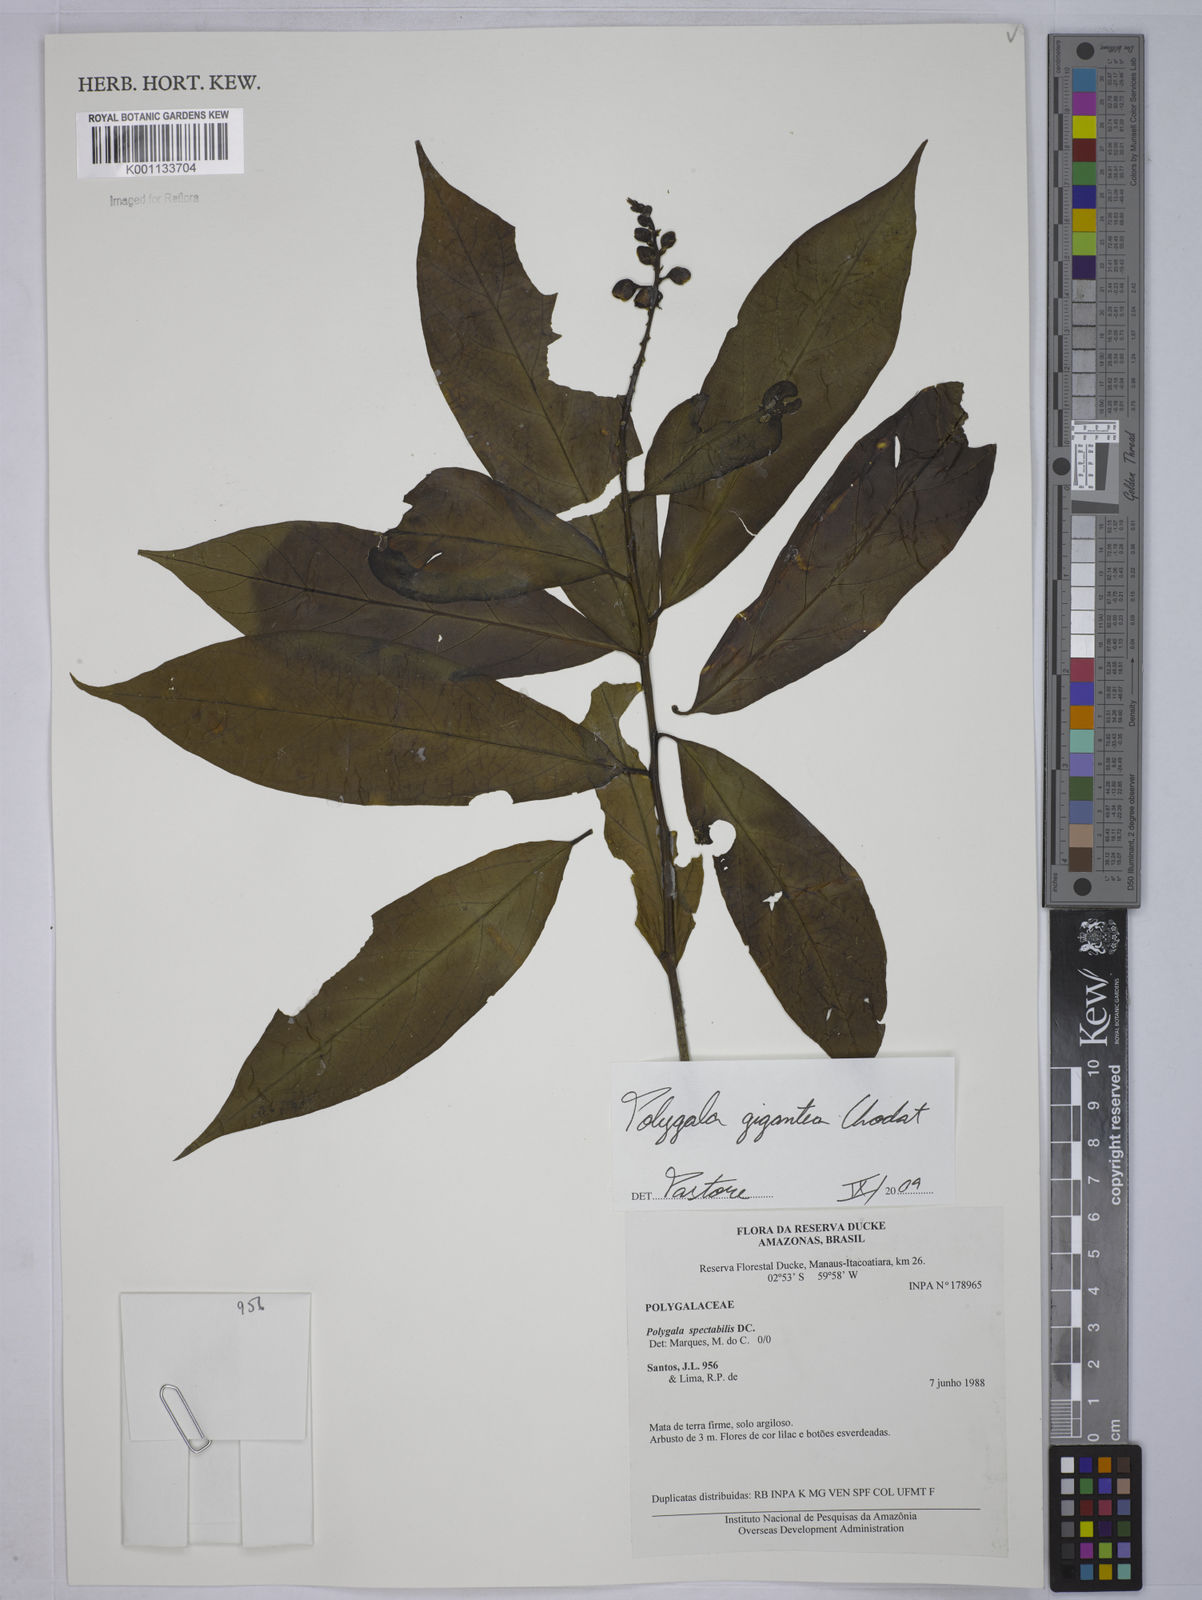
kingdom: Plantae
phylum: Tracheophyta
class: Magnoliopsida
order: Fabales
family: Polygalaceae
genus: Caamembeca
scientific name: Caamembeca gigantea
